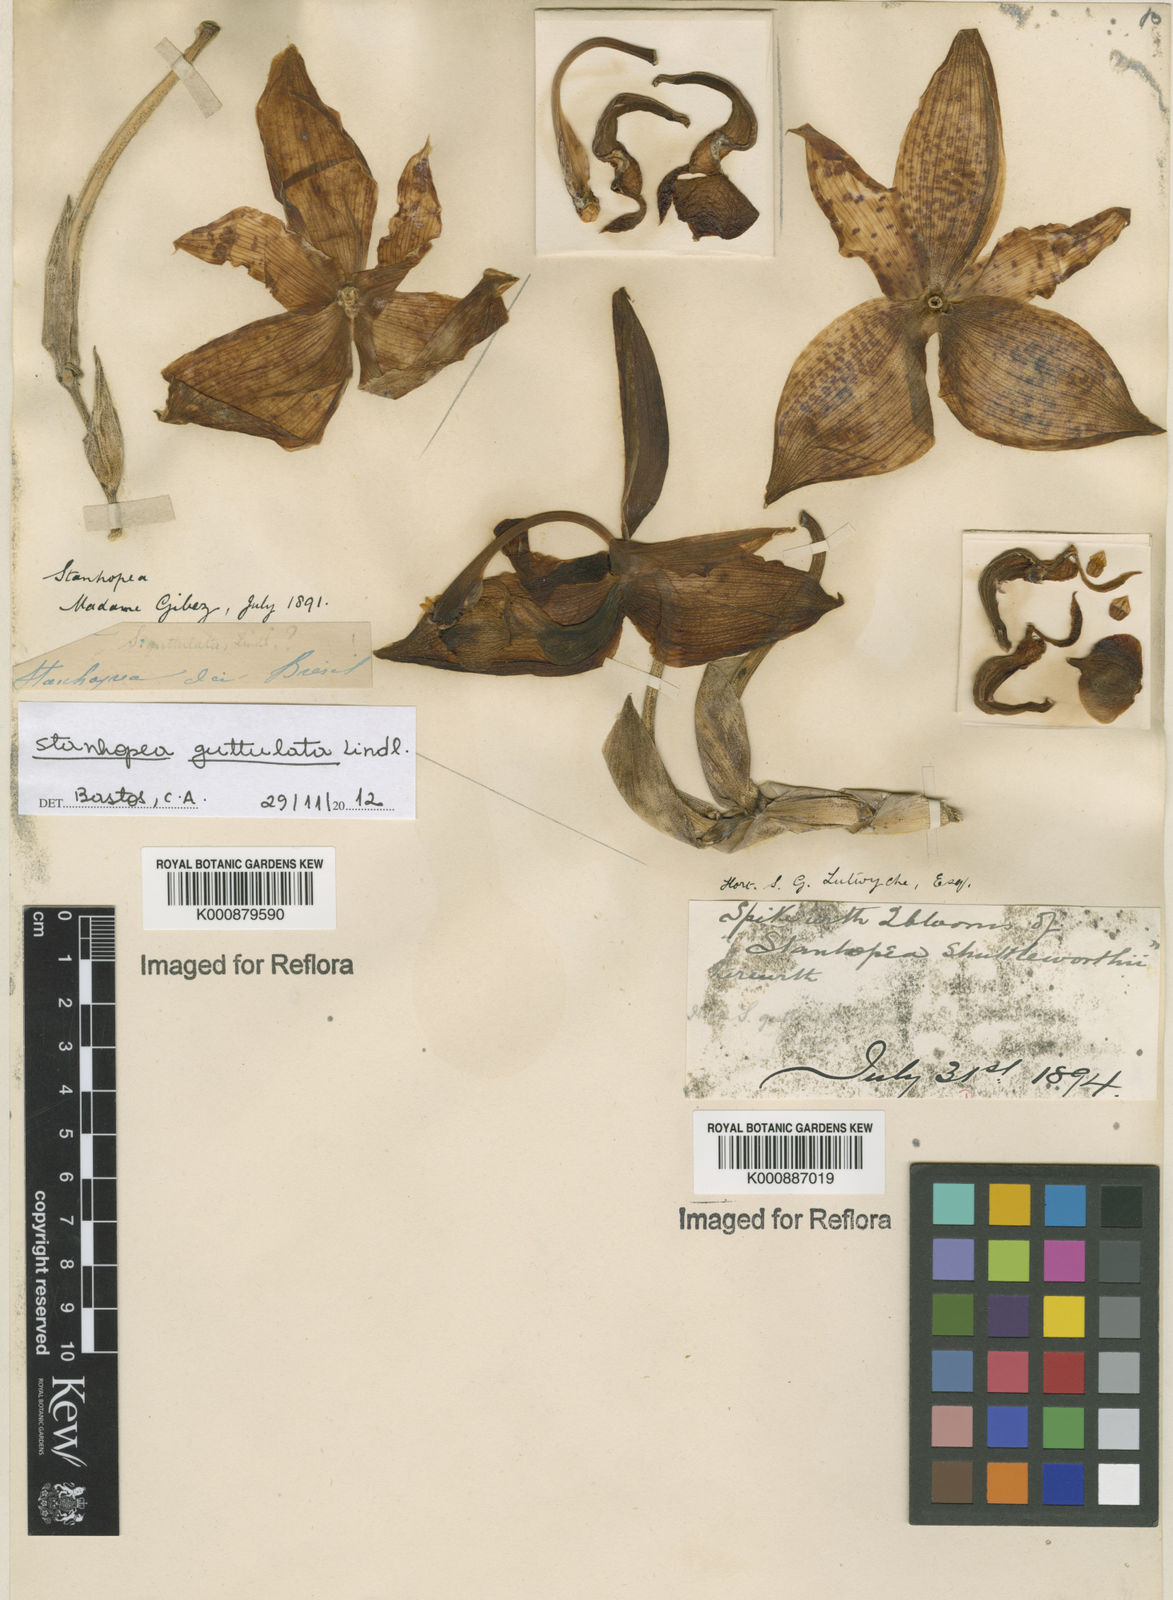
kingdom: Plantae
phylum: Tracheophyta
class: Liliopsida
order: Asparagales
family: Orchidaceae
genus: Stanhopea
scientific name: Stanhopea guttulata
